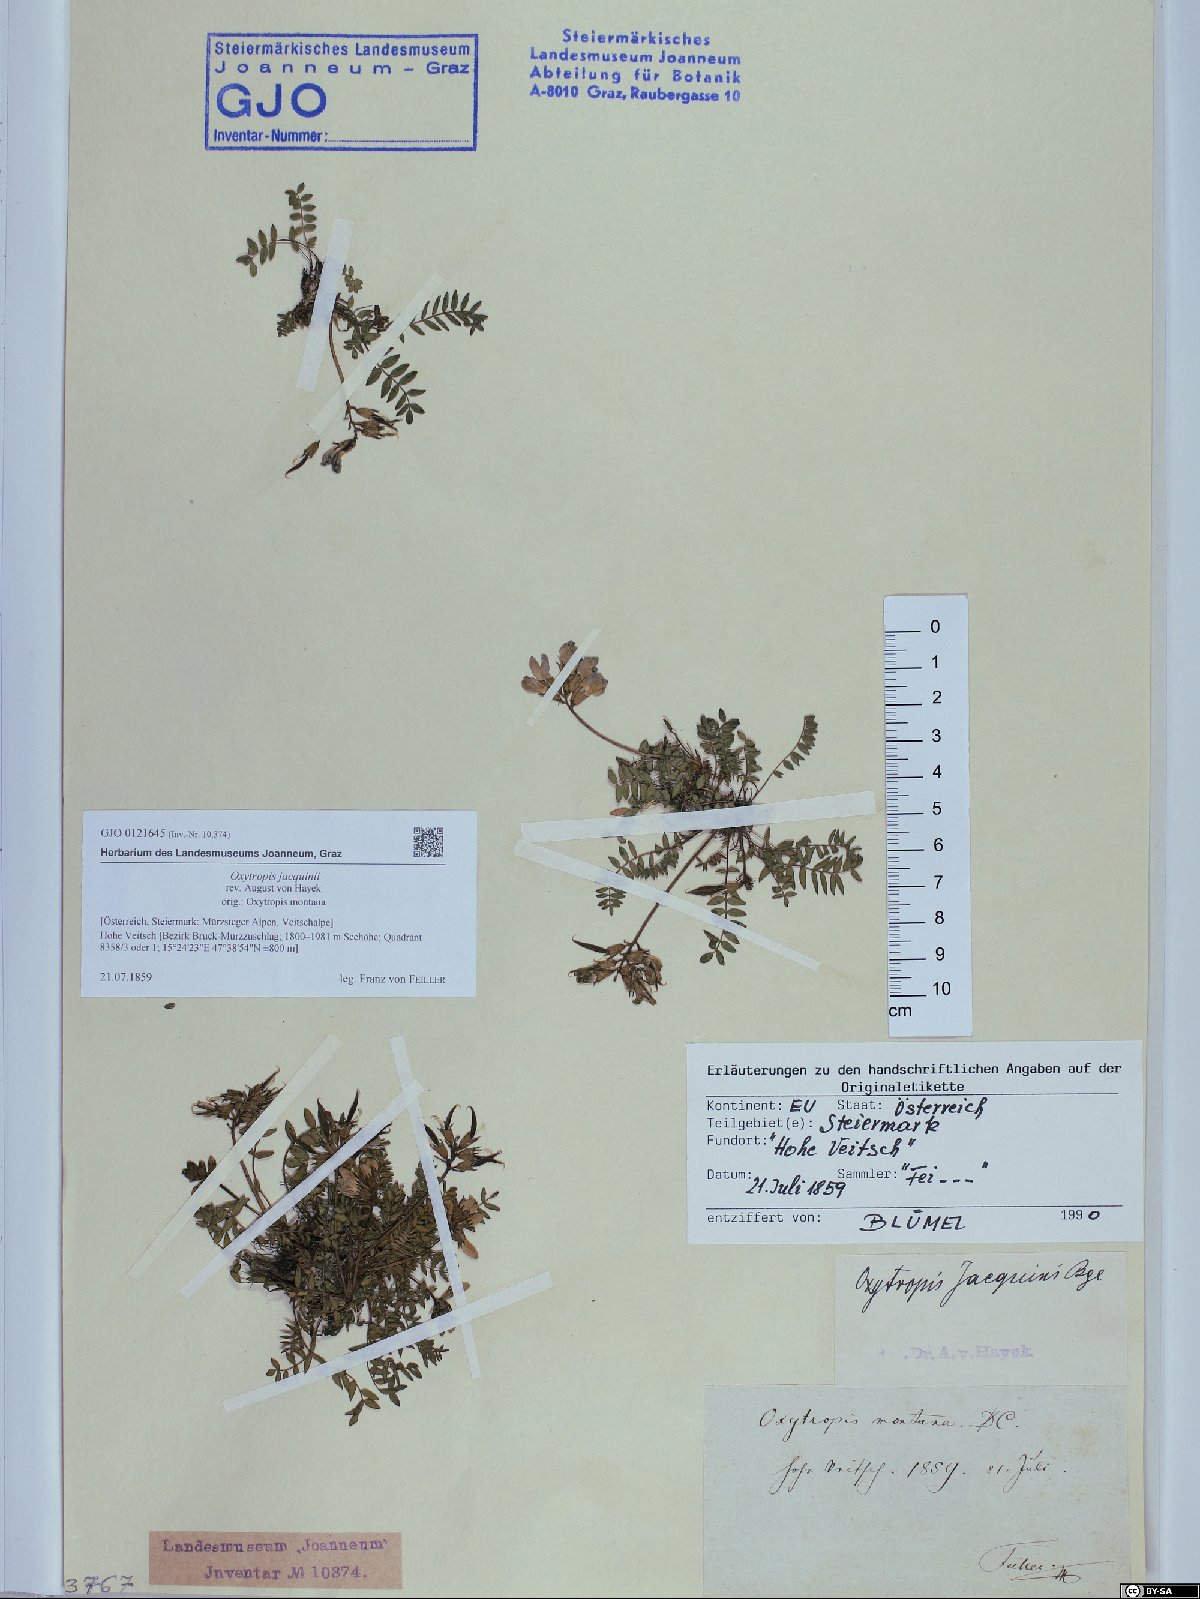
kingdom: Plantae
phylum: Tracheophyta
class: Magnoliopsida
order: Fabales
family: Fabaceae
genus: Oxytropis
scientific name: Oxytropis montana
